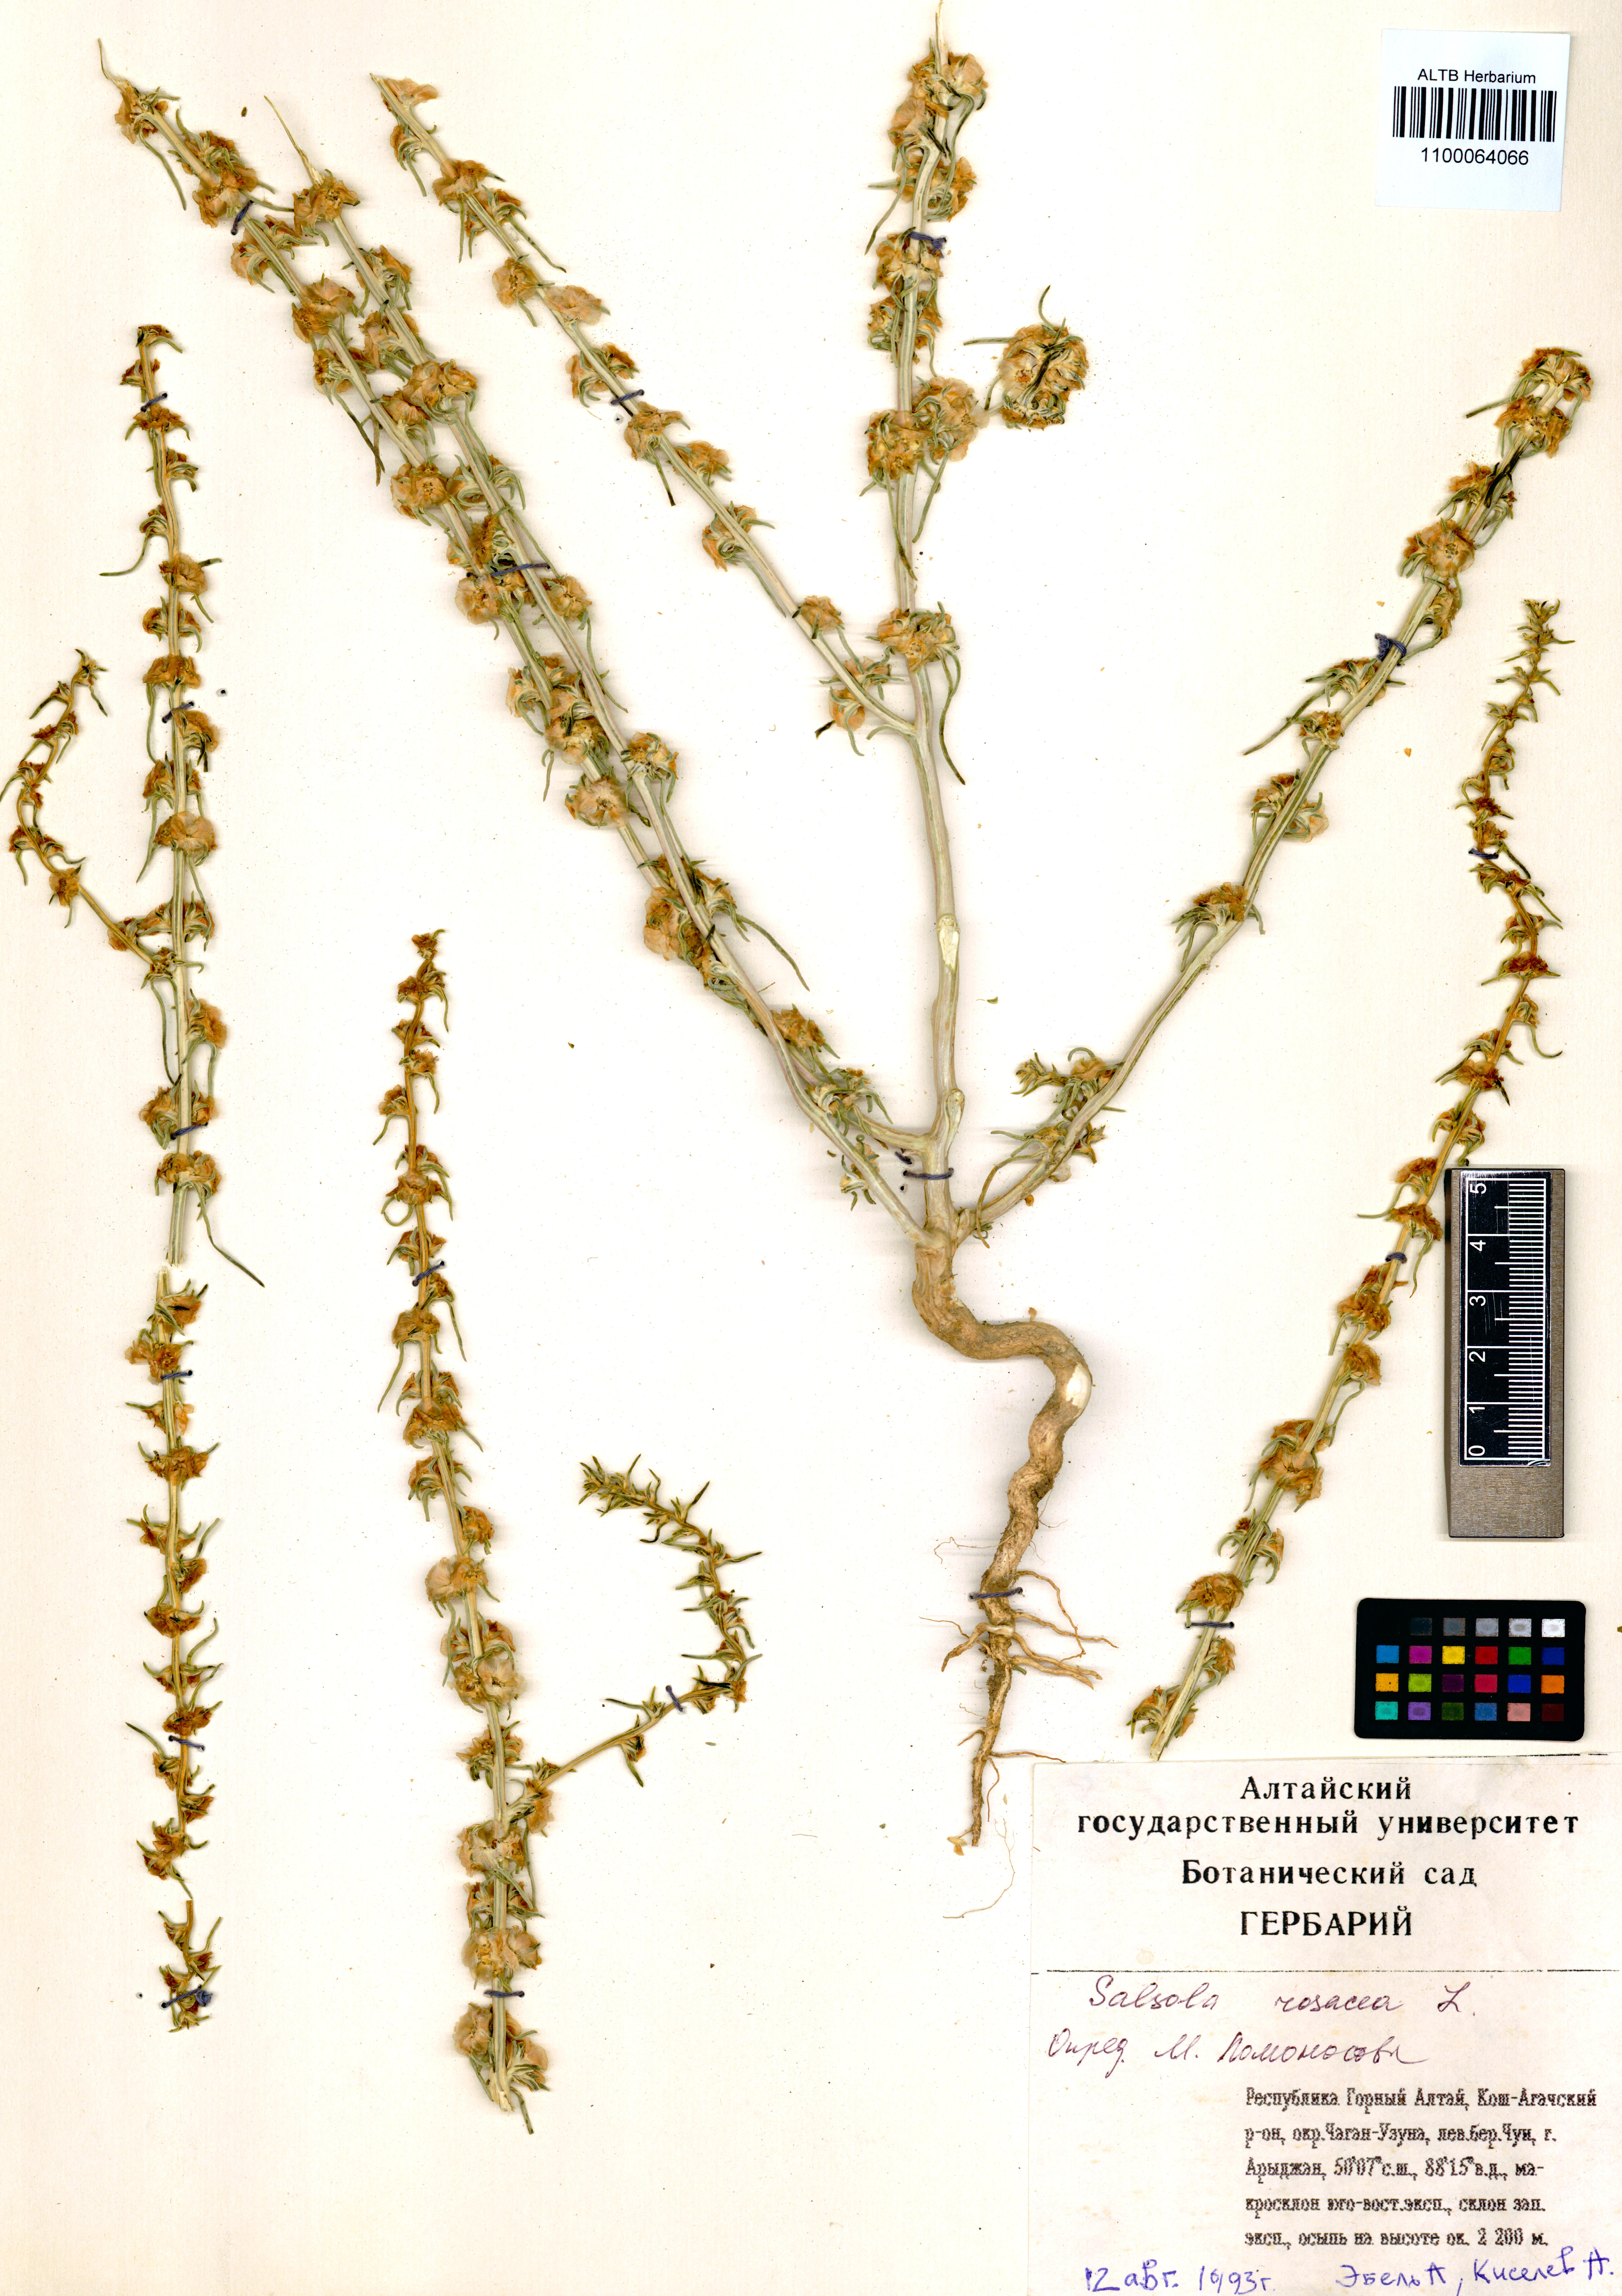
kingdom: Plantae
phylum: Tracheophyta
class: Magnoliopsida
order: Caryophyllales
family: Amaranthaceae
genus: Salsola
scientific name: Salsola rosacea
